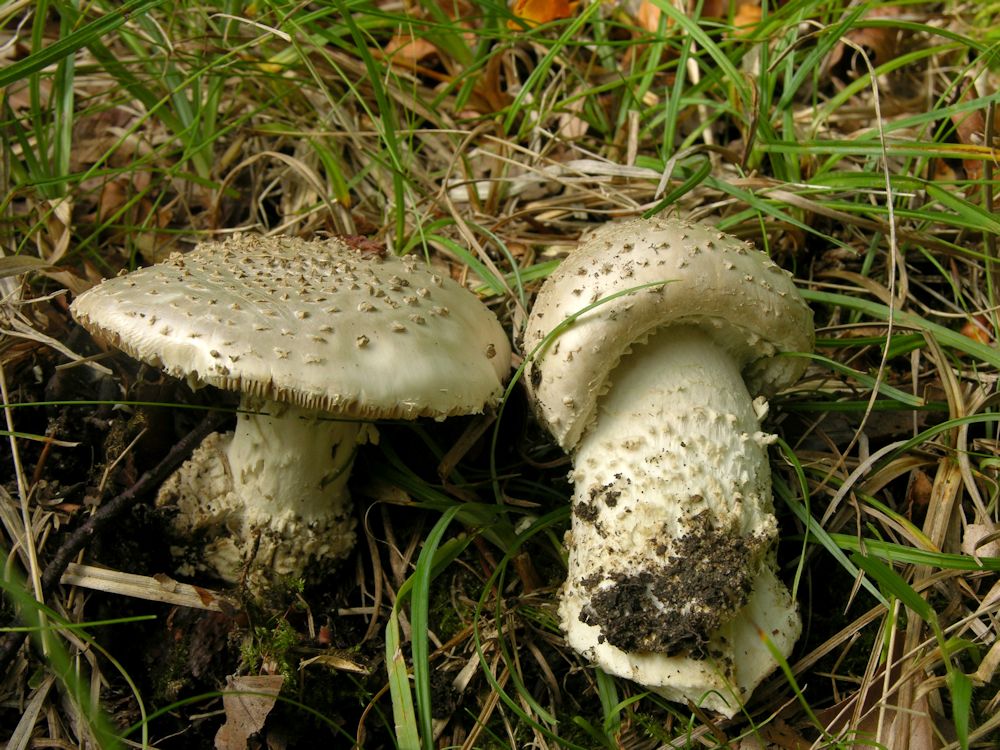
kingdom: Fungi
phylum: Basidiomycota
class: Agaricomycetes
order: Agaricales
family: Amanitaceae
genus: Aspidella
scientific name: Aspidella solitaria
